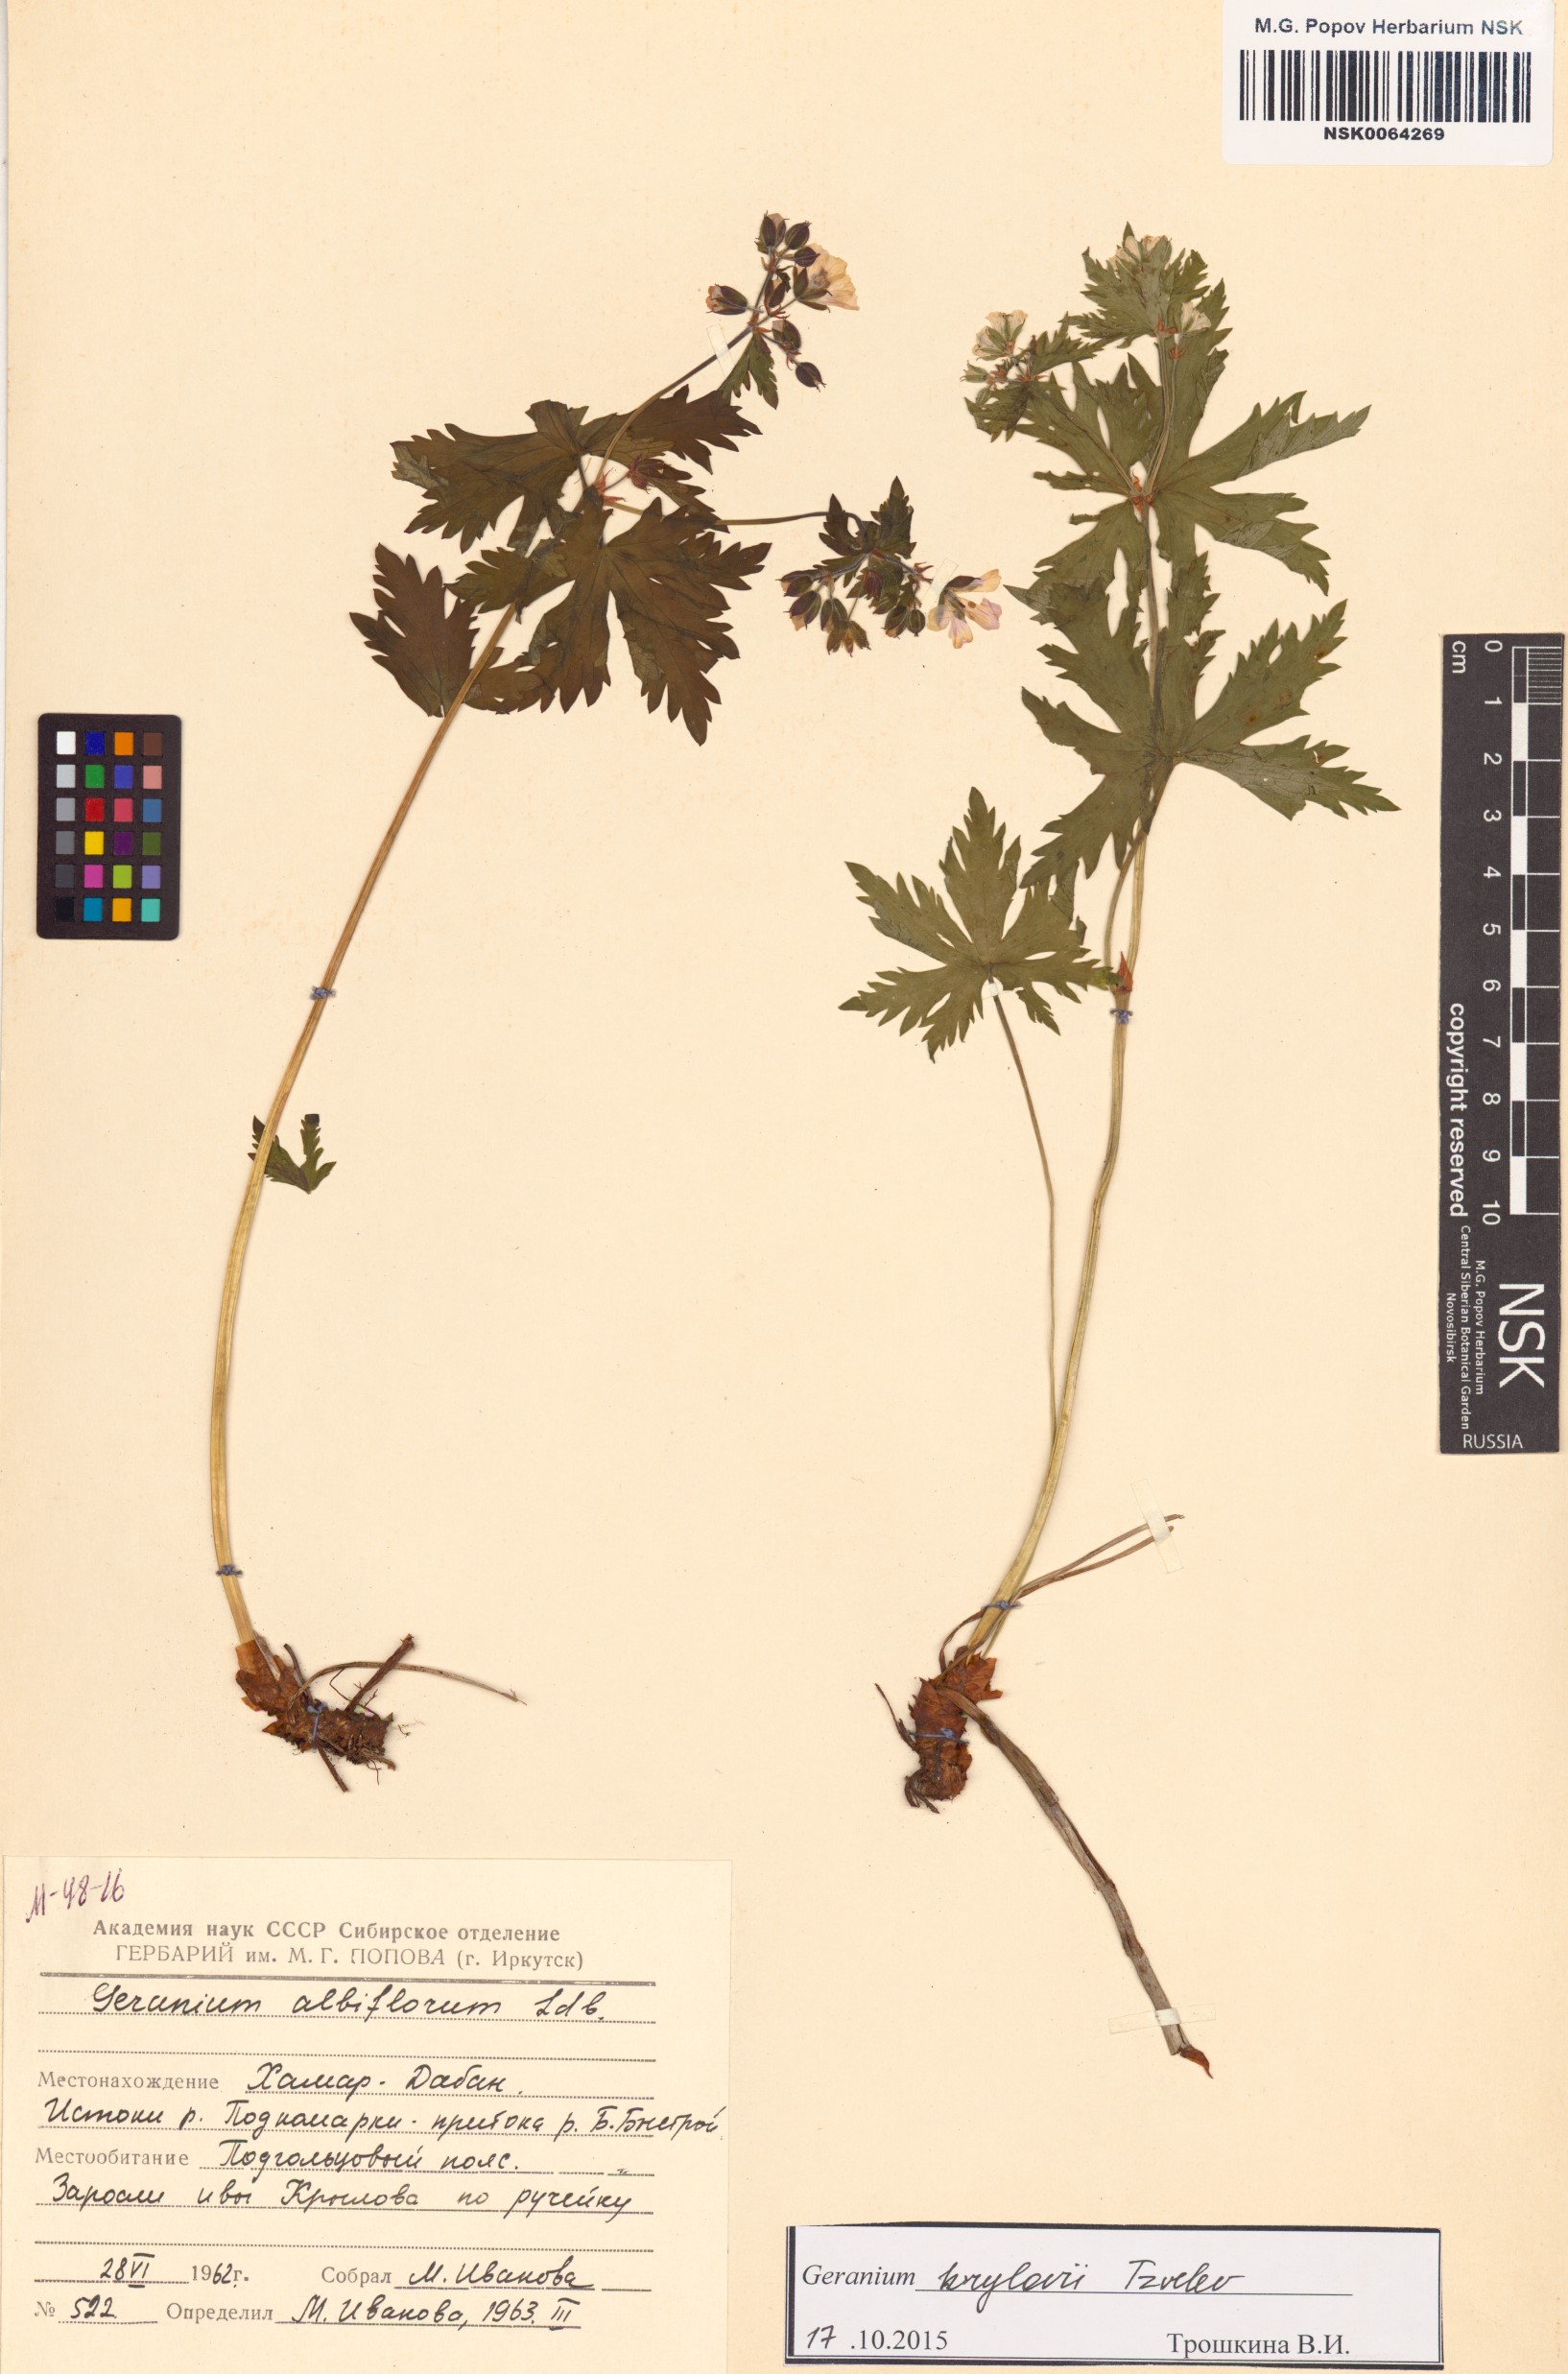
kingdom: Plantae
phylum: Tracheophyta
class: Magnoliopsida
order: Geraniales
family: Geraniaceae
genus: Geranium
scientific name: Geranium sylvaticum
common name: Wood crane's-bill
